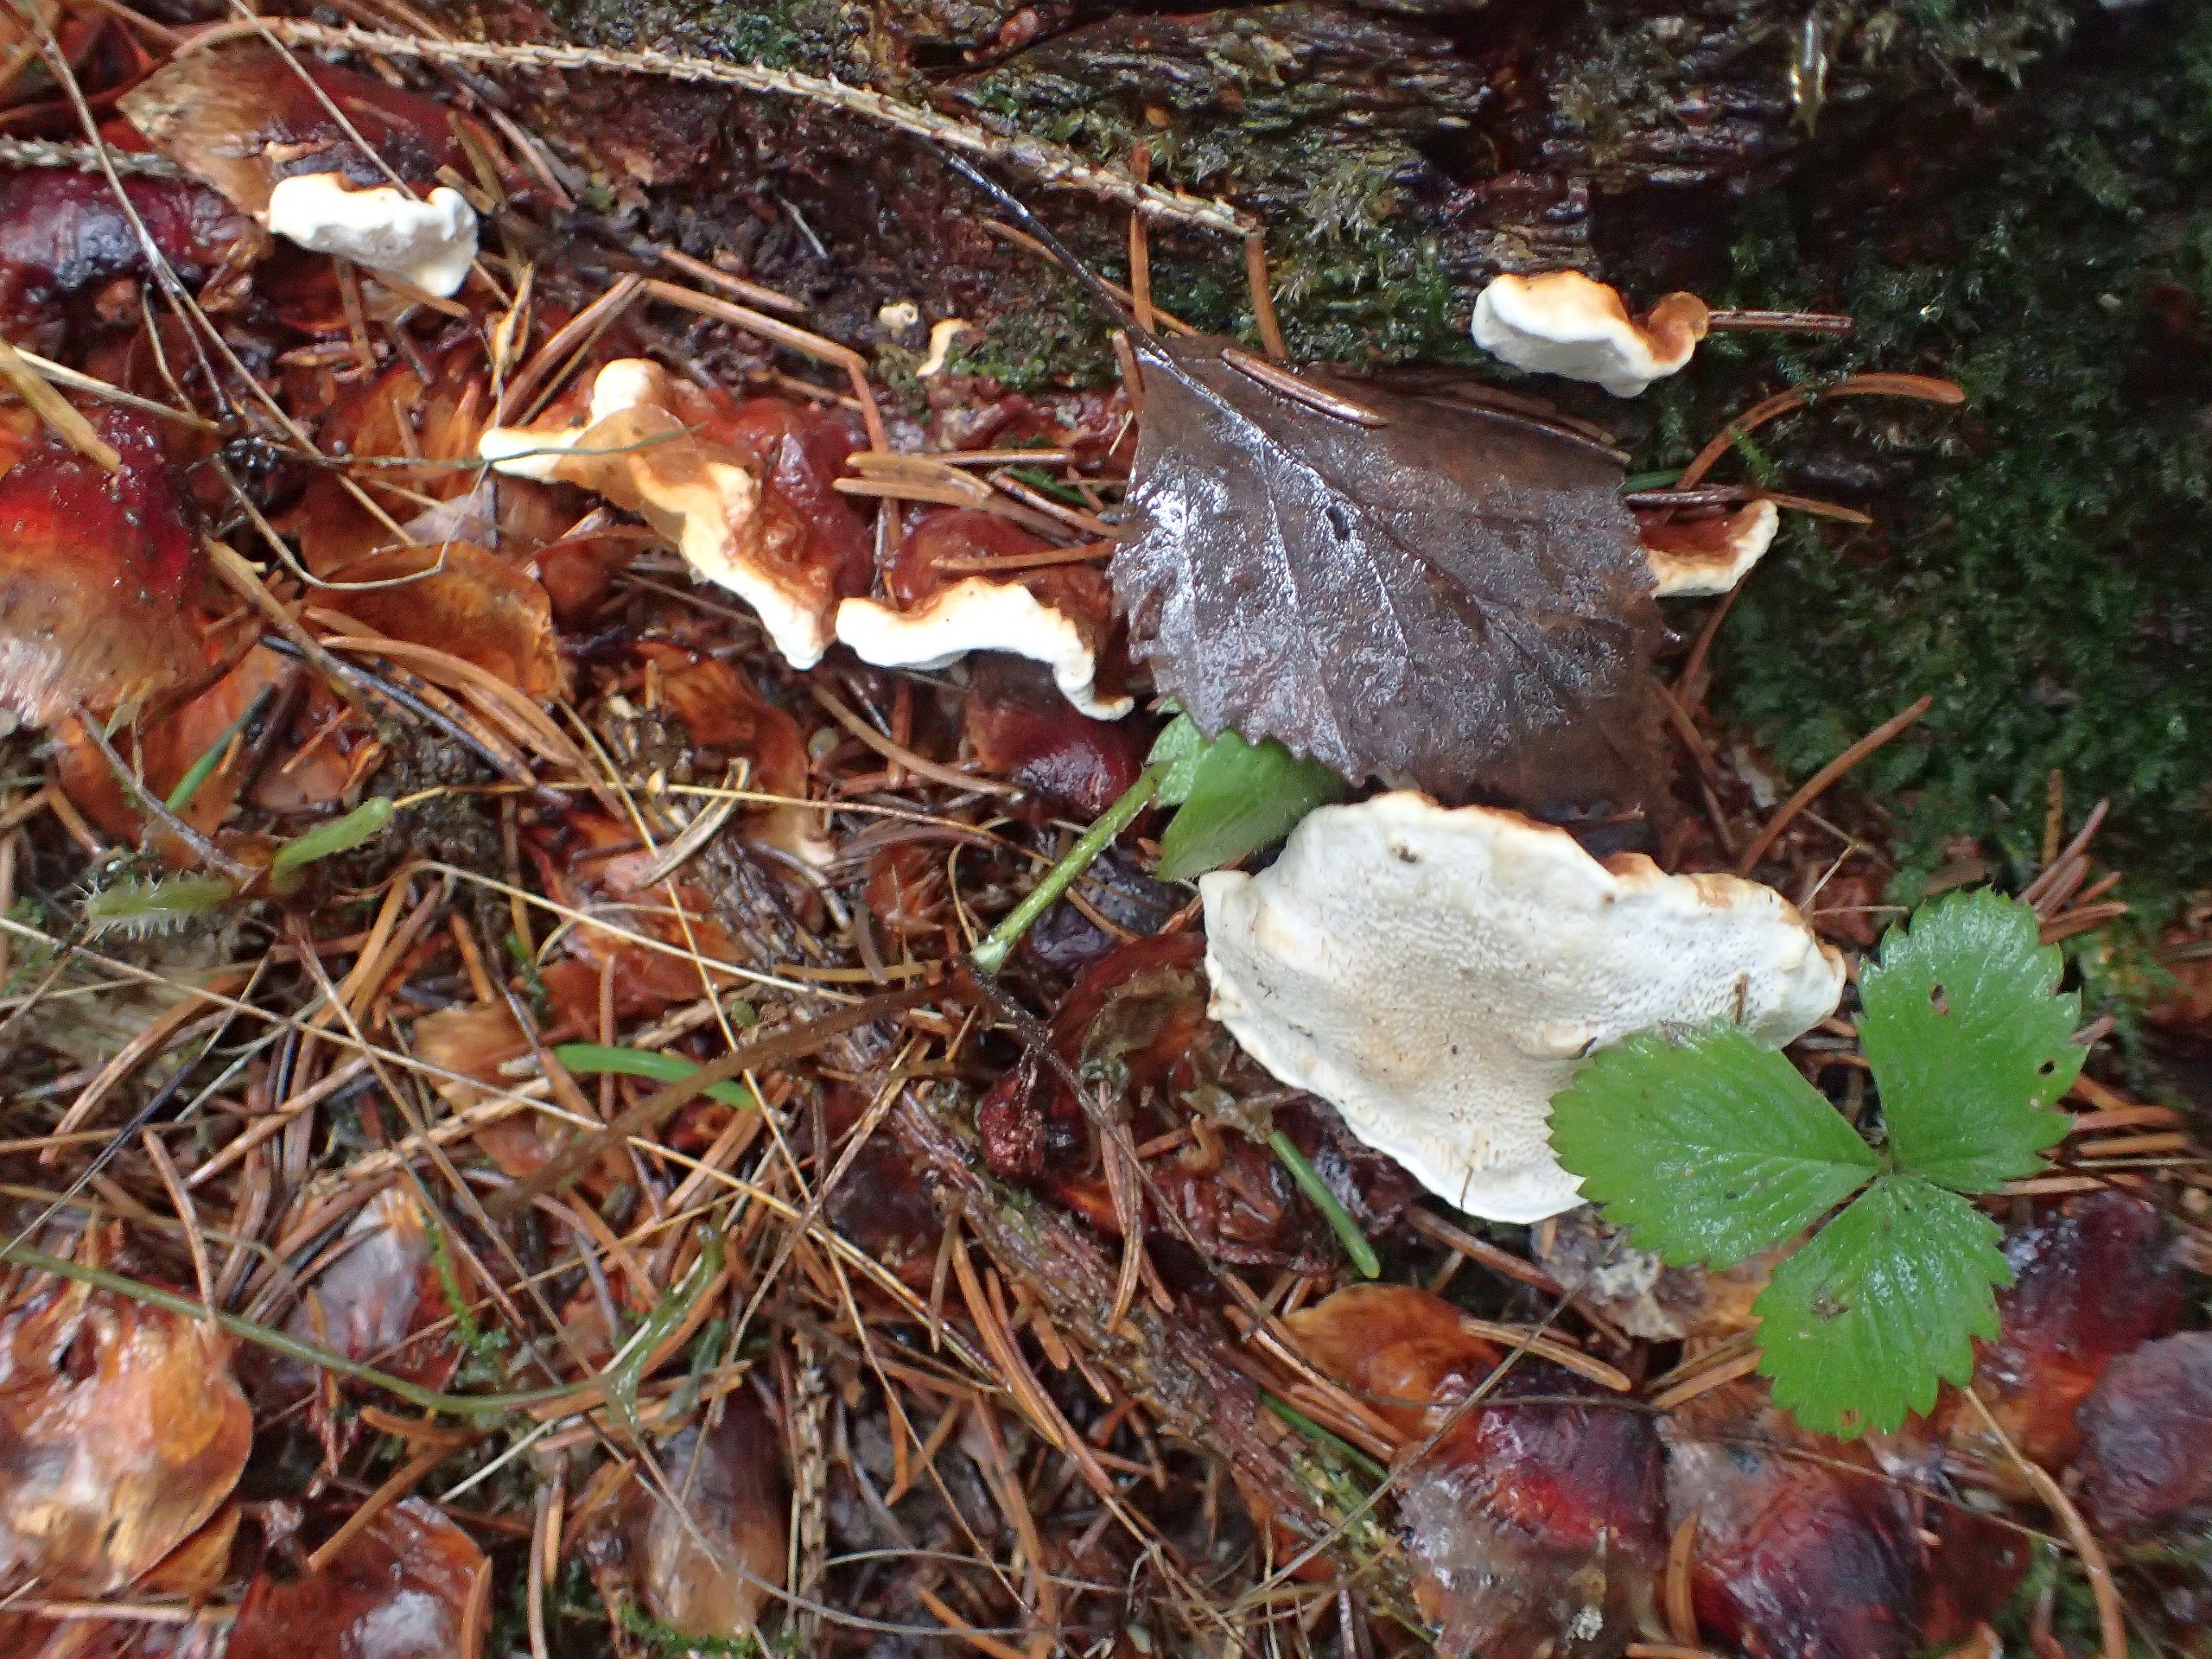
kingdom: Fungi
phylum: Basidiomycota
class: Agaricomycetes
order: Russulales
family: Bondarzewiaceae
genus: Heterobasidion
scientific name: Heterobasidion annosum
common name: Almindelig rodfordærver
